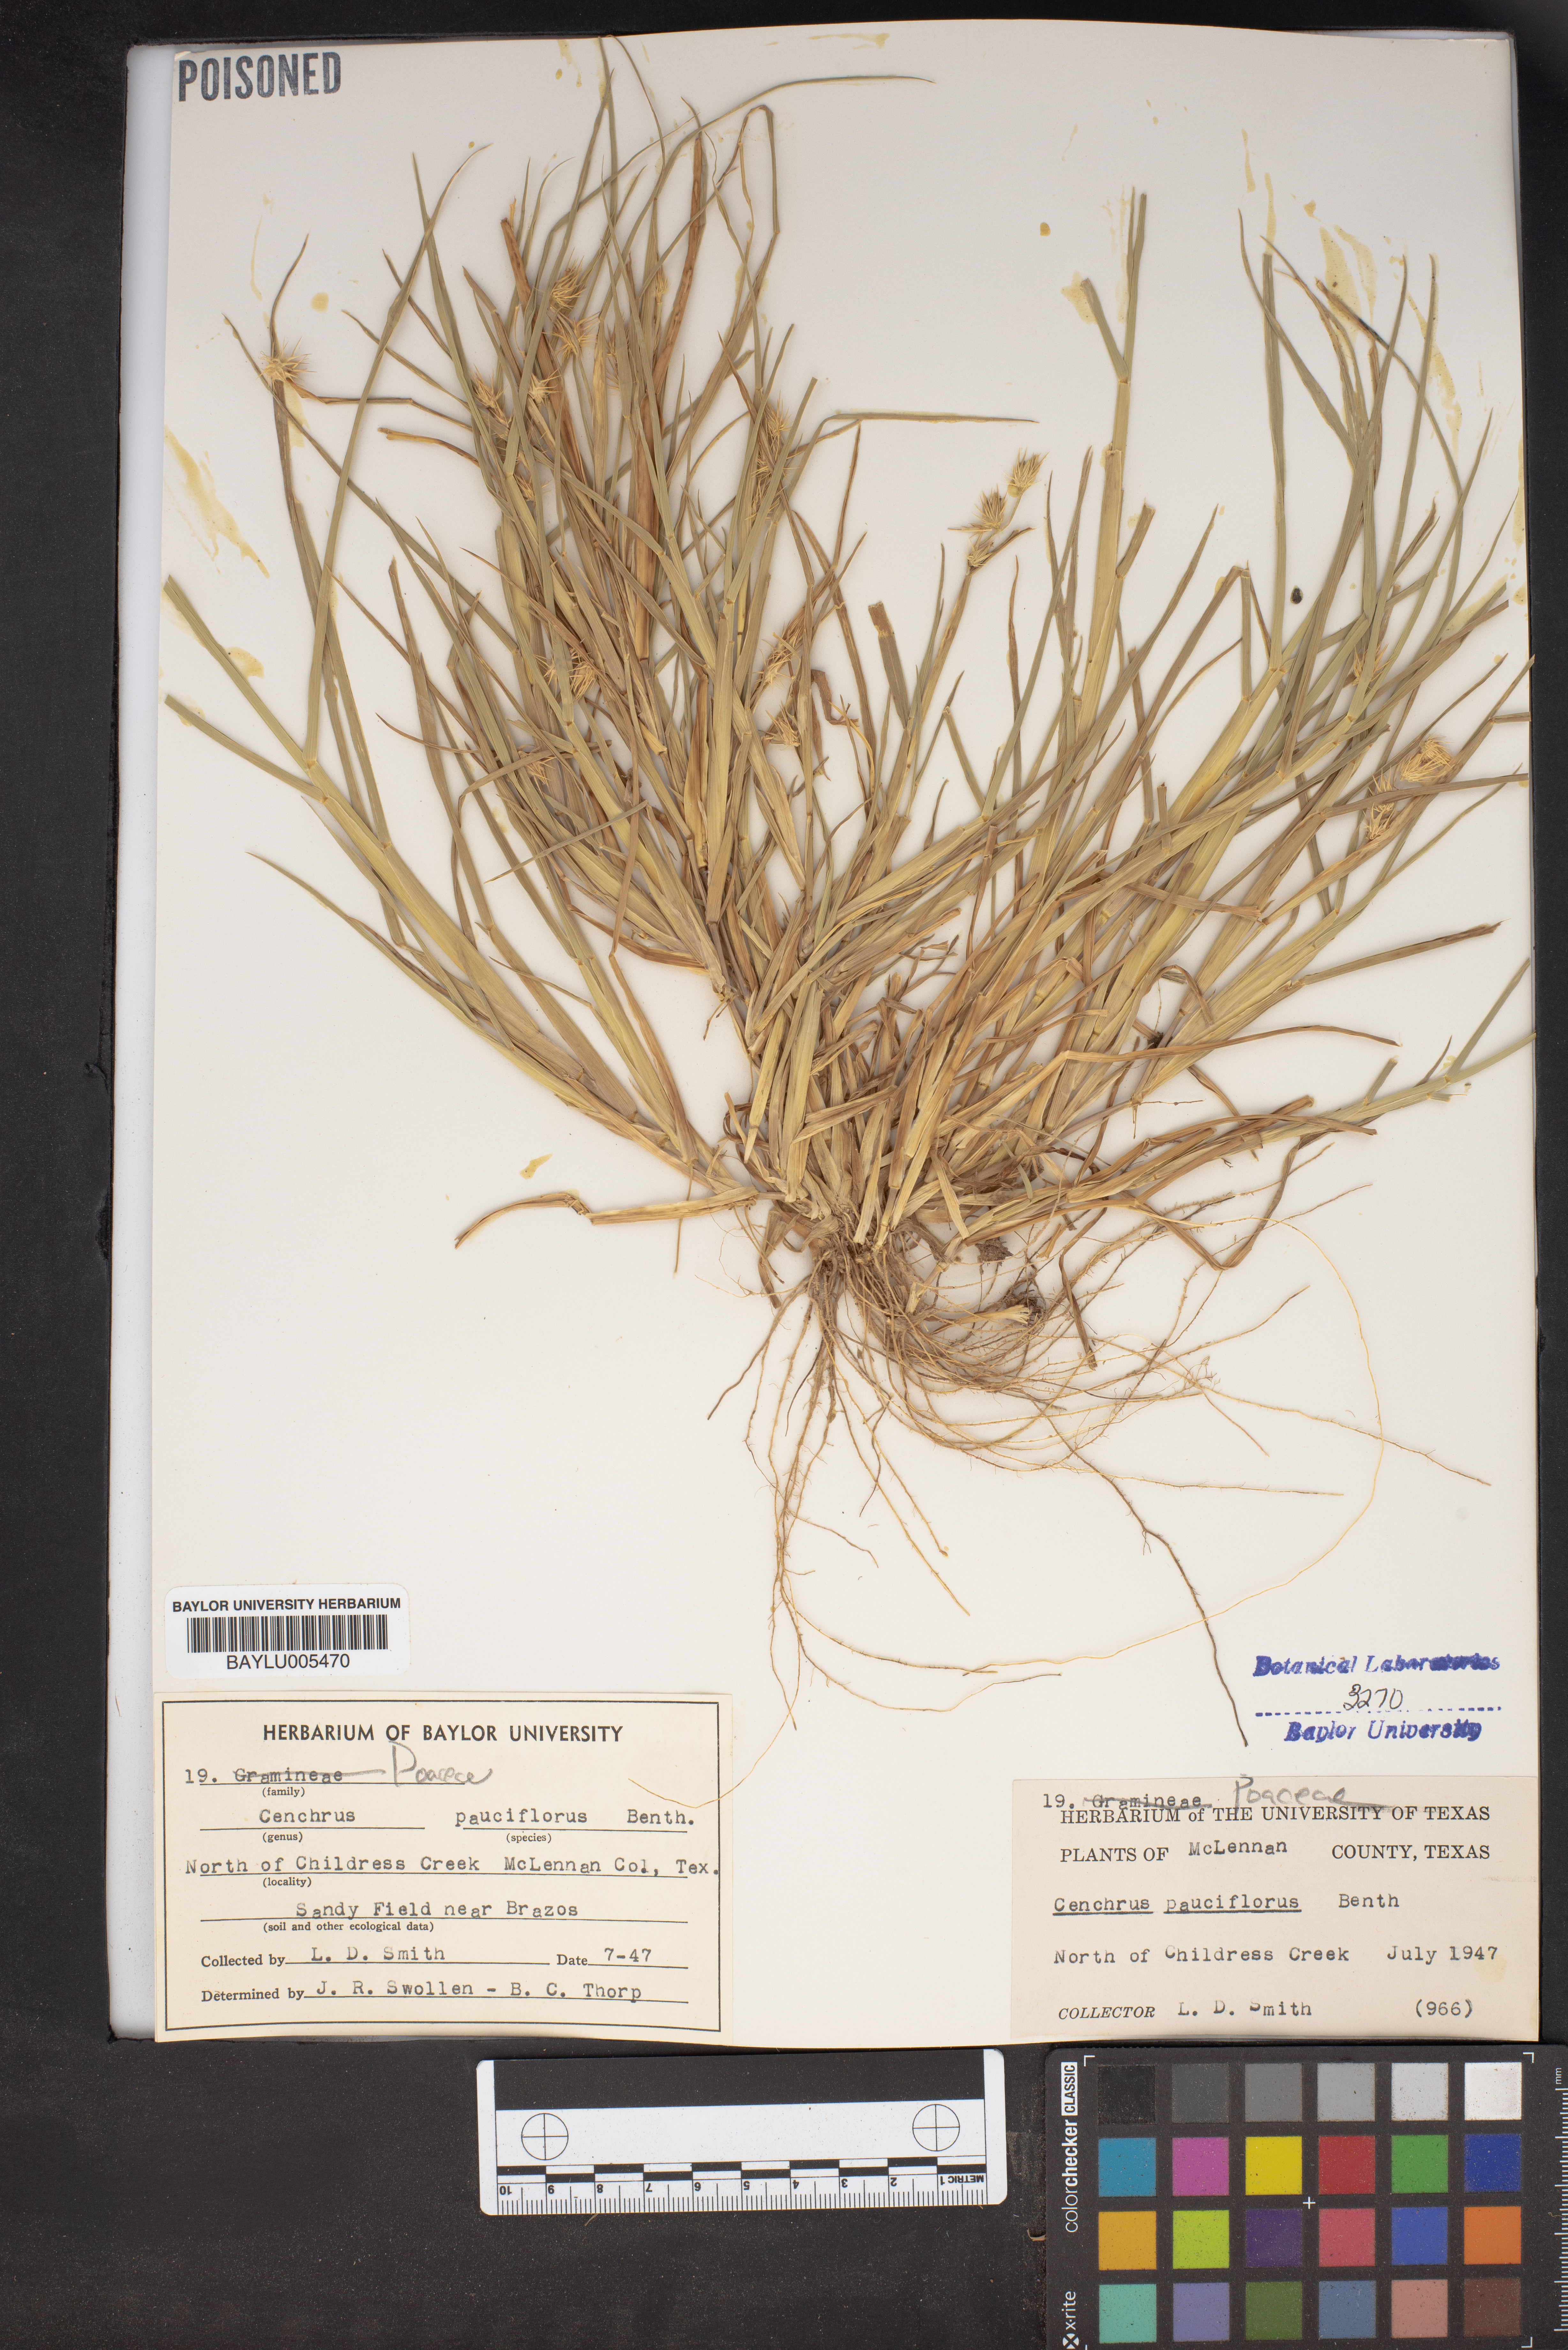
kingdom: Plantae
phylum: Tracheophyta
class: Liliopsida
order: Poales
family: Poaceae
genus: Cenchrus
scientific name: Cenchrus spinifex
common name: Coast sandbur
